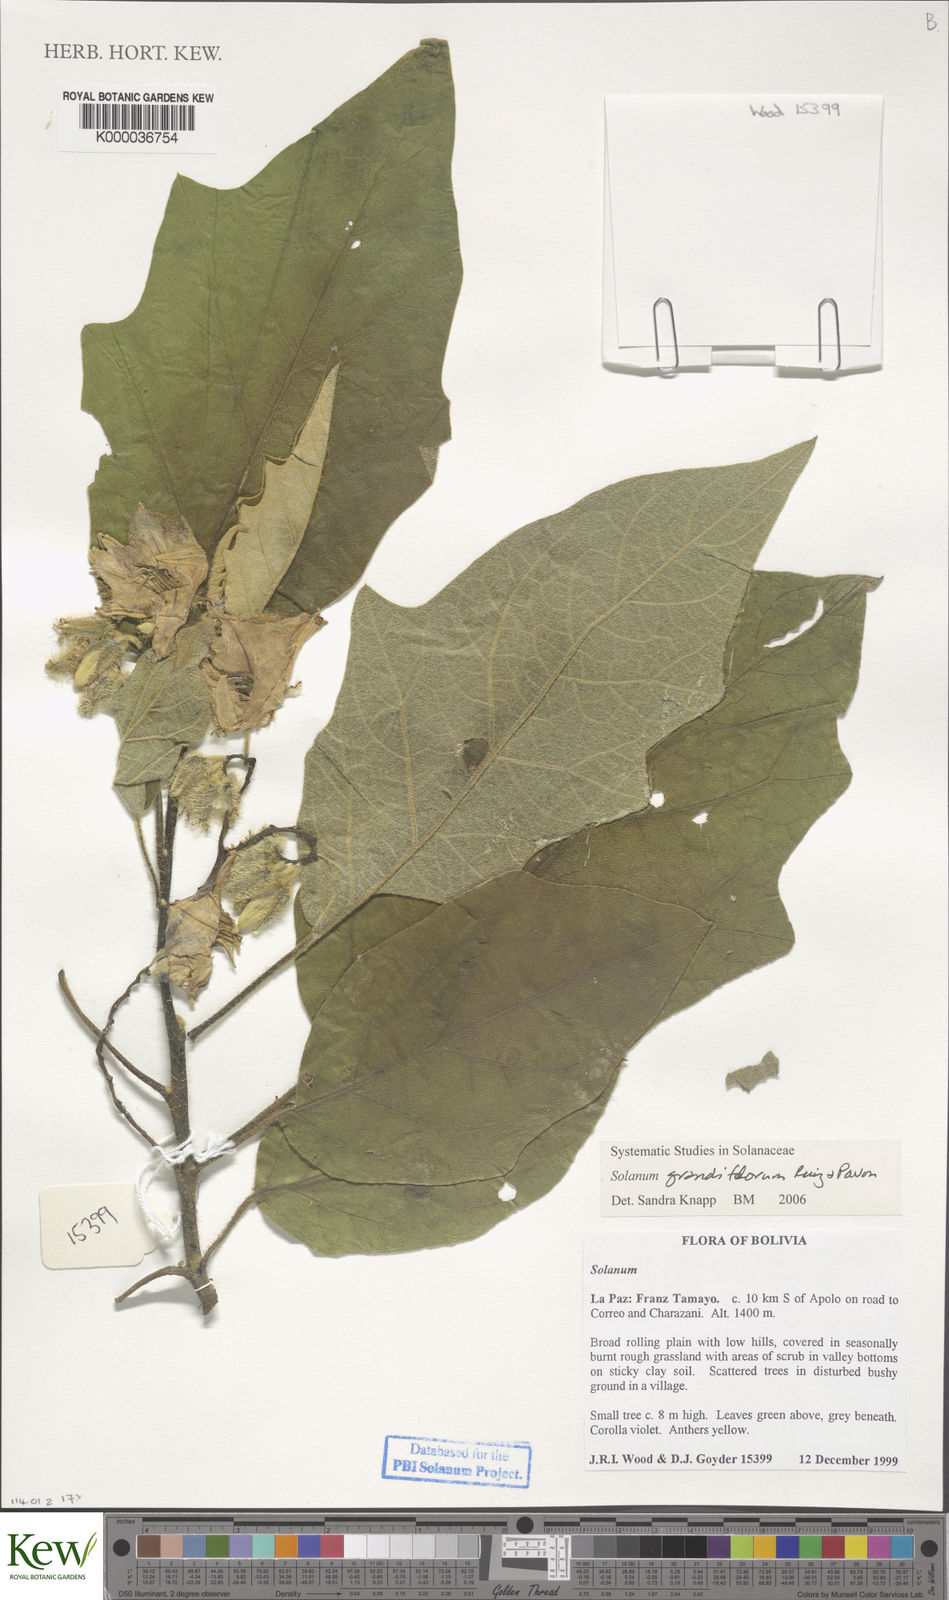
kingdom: Plantae
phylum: Tracheophyta
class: Magnoliopsida
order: Solanales
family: Solanaceae
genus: Solanum
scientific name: Solanum grandiflorum
